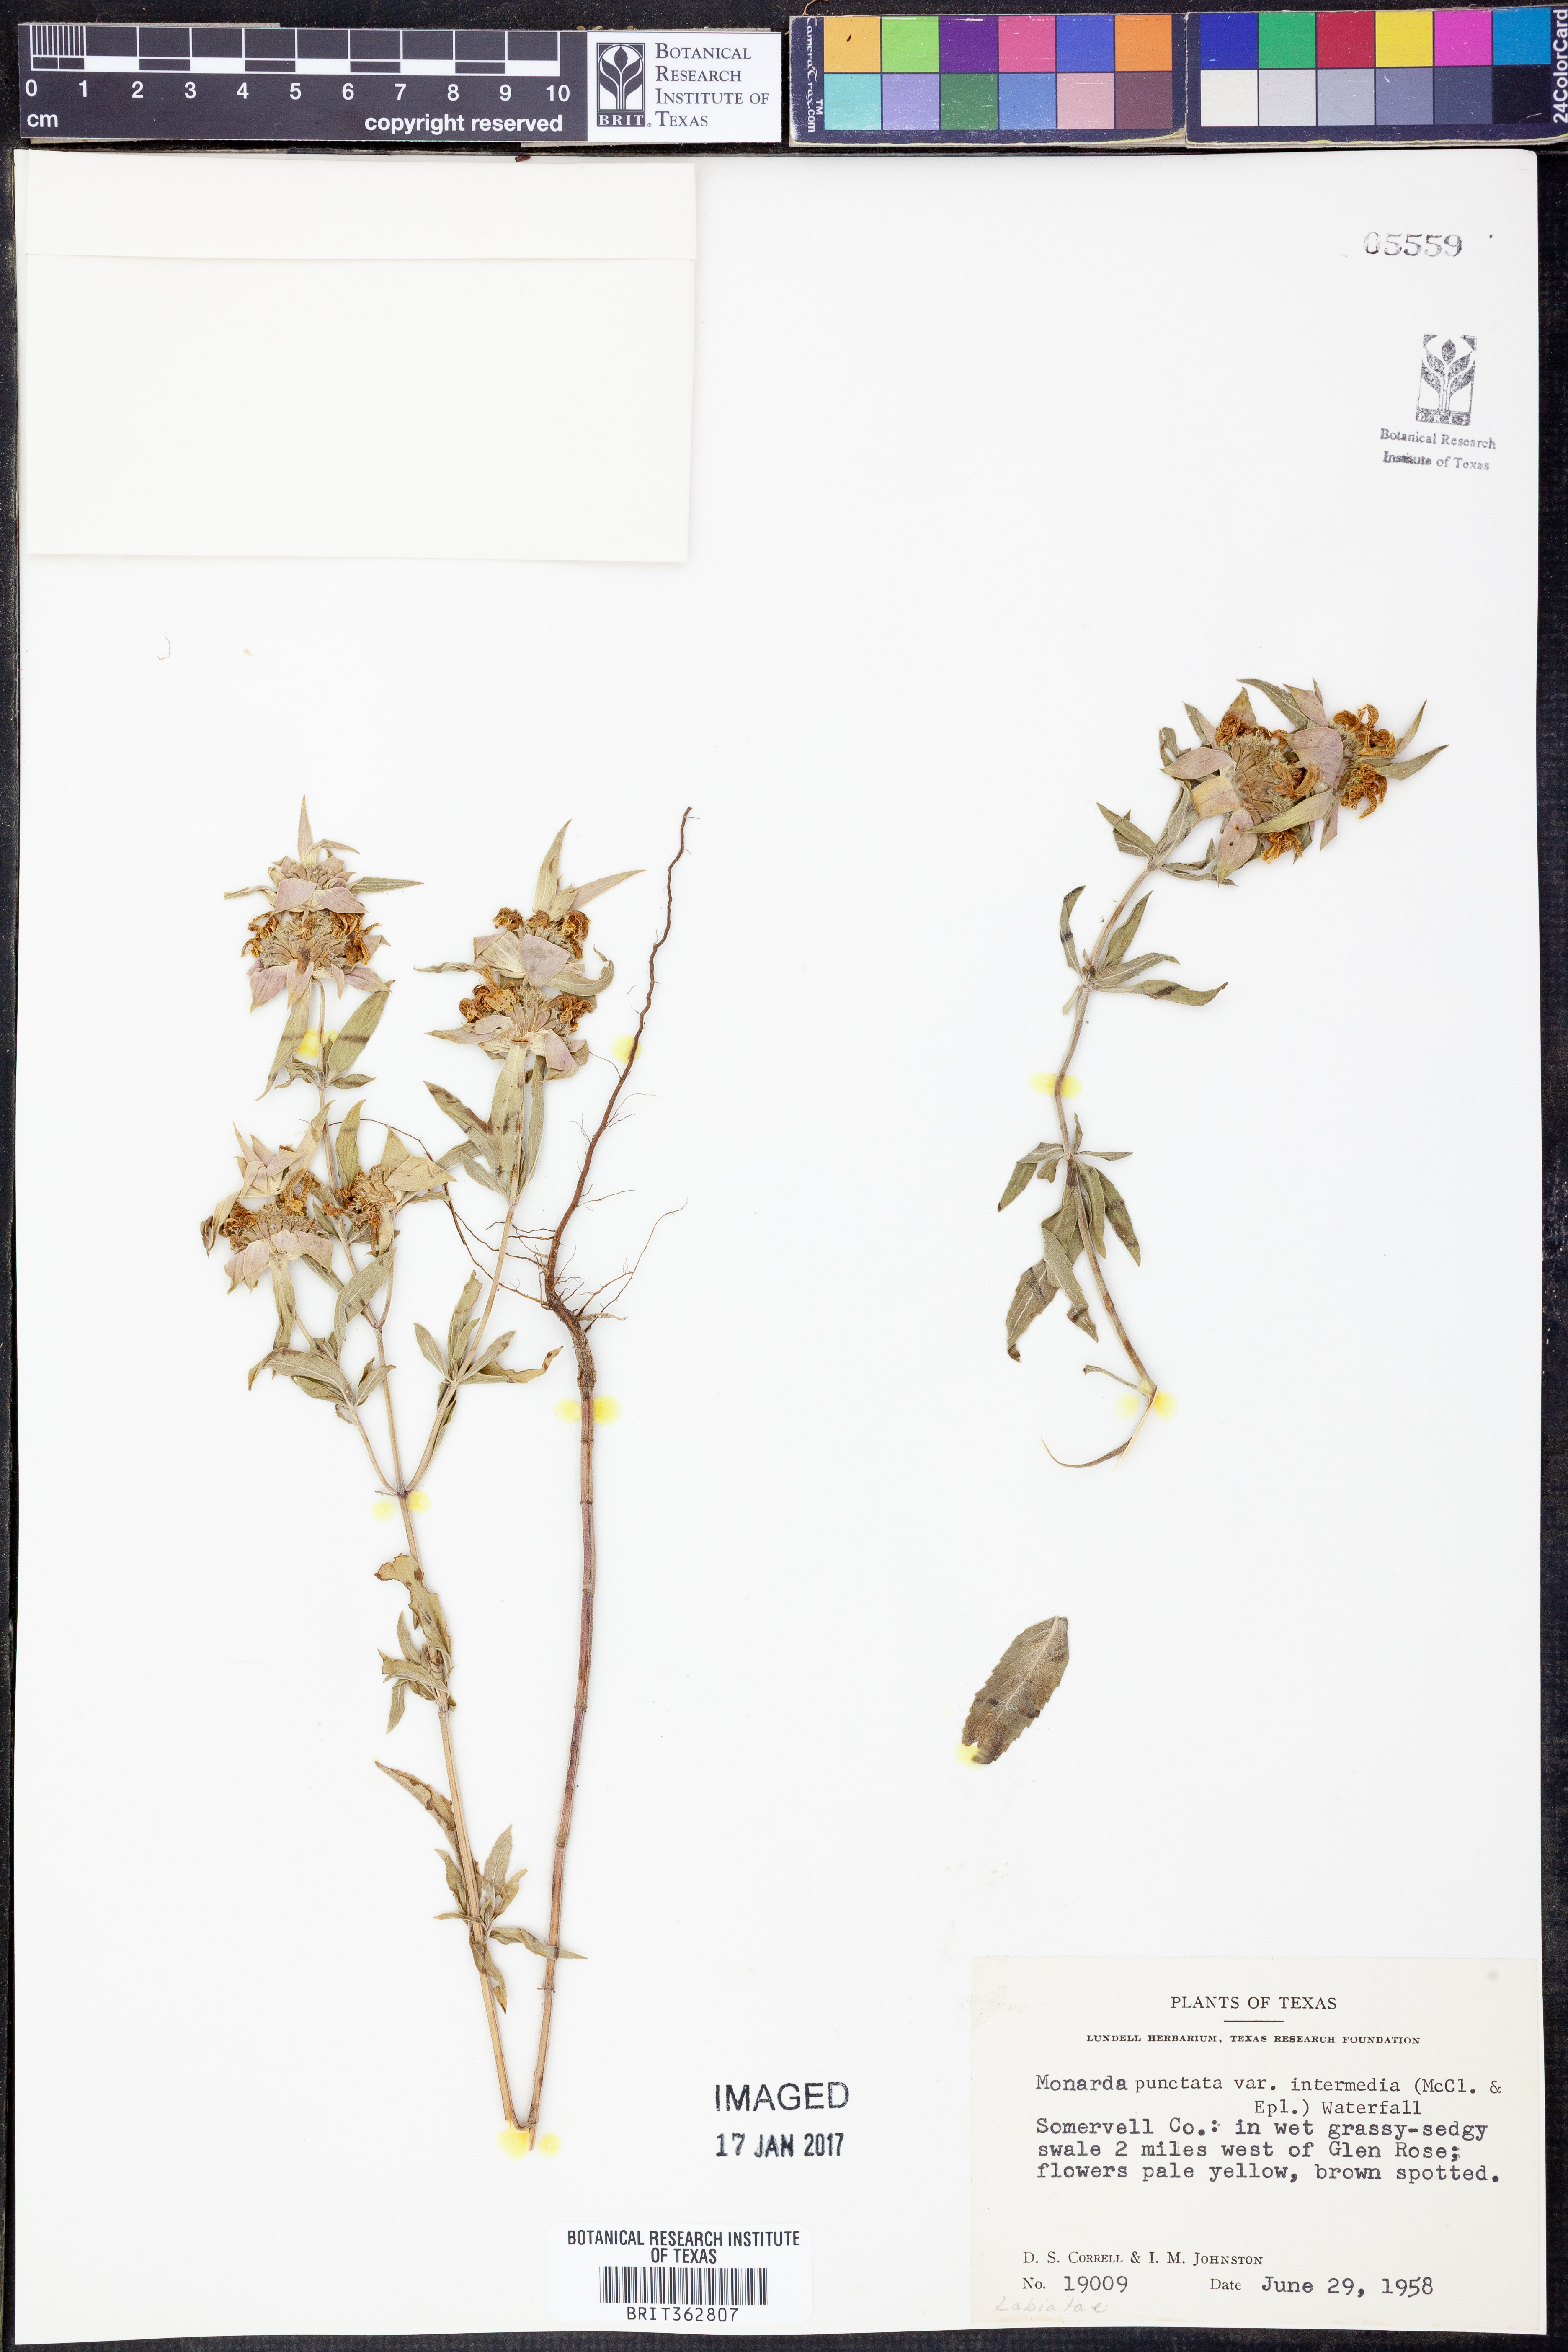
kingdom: Plantae
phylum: Tracheophyta
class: Magnoliopsida
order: Lamiales
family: Lamiaceae
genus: Monarda
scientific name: Monarda punctata
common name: Dotted monarda
